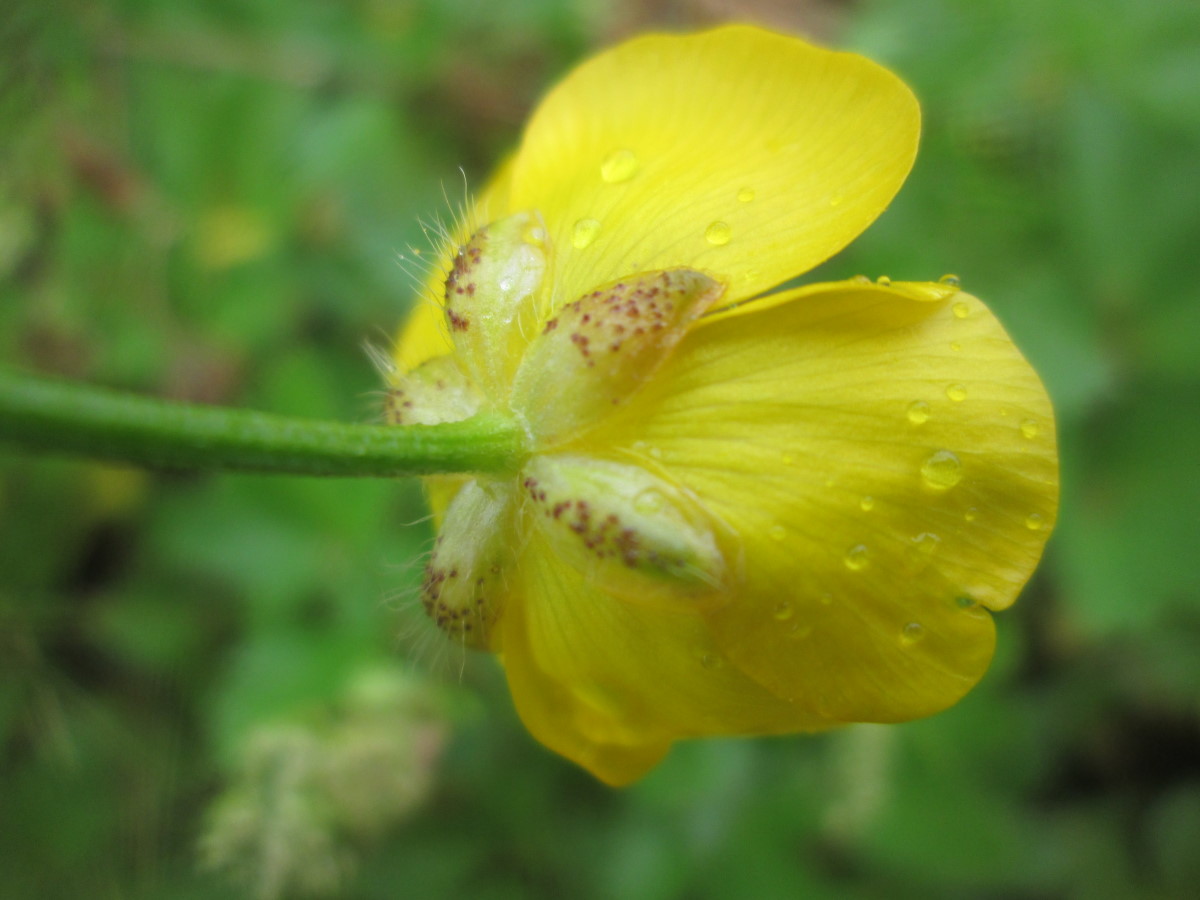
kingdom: Plantae
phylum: Tracheophyta
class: Magnoliopsida
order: Ranunculales
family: Ranunculaceae
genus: Ranunculus
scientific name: Ranunculus polyanthemos
